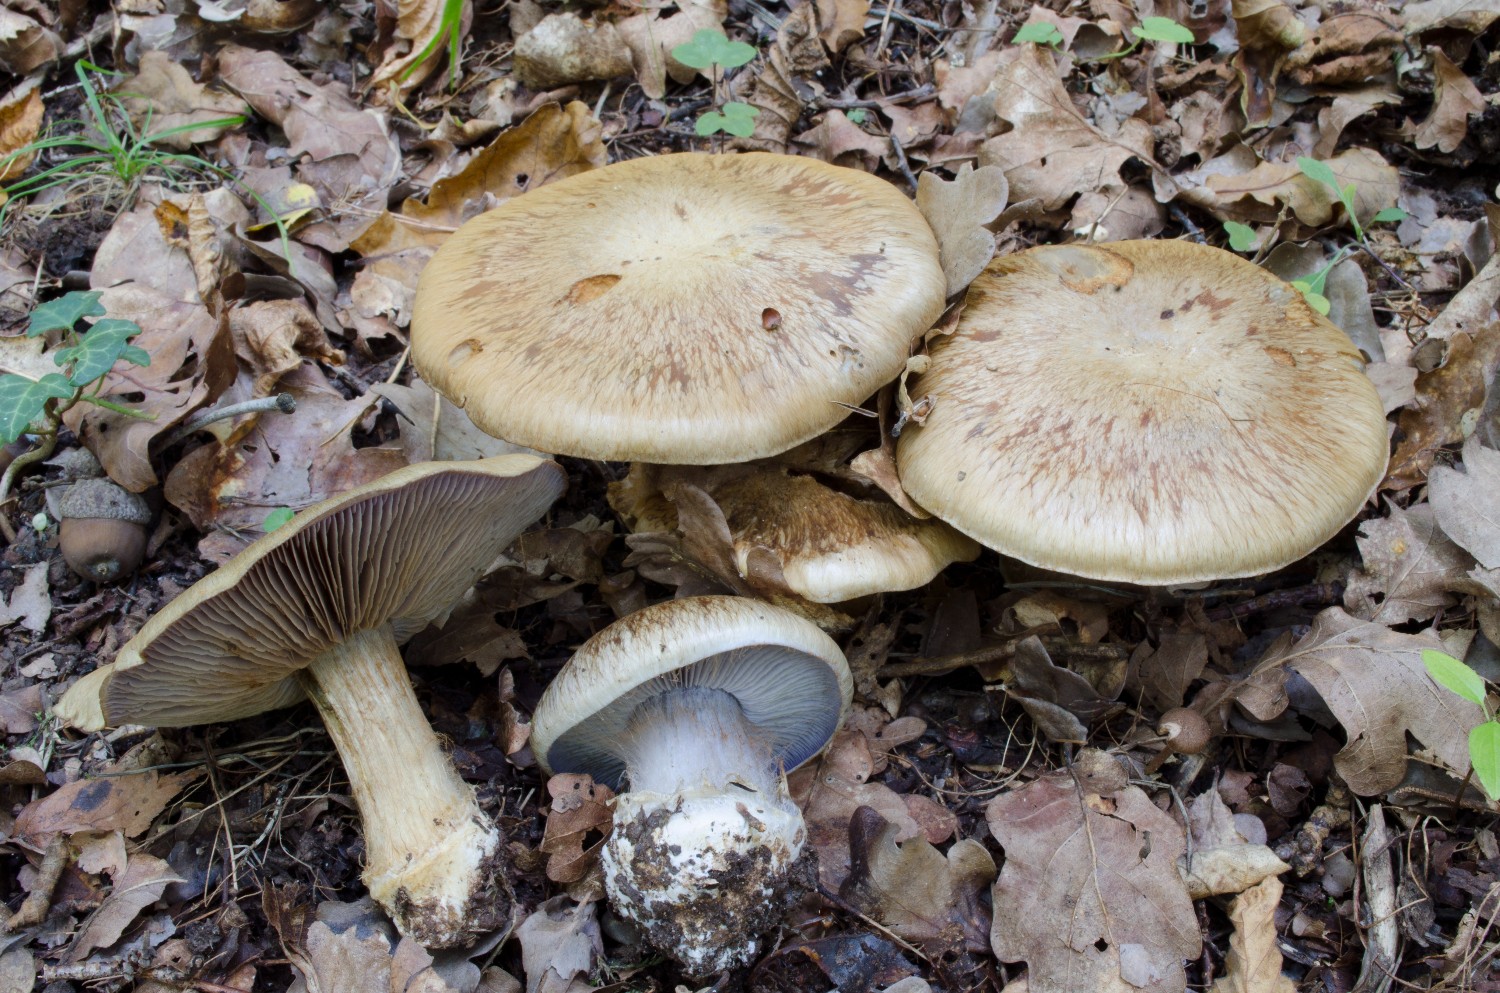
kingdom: Fungi
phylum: Basidiomycota
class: Agaricomycetes
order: Agaricales
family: Cortinariaceae
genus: Phlegmacium
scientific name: Phlegmacium
